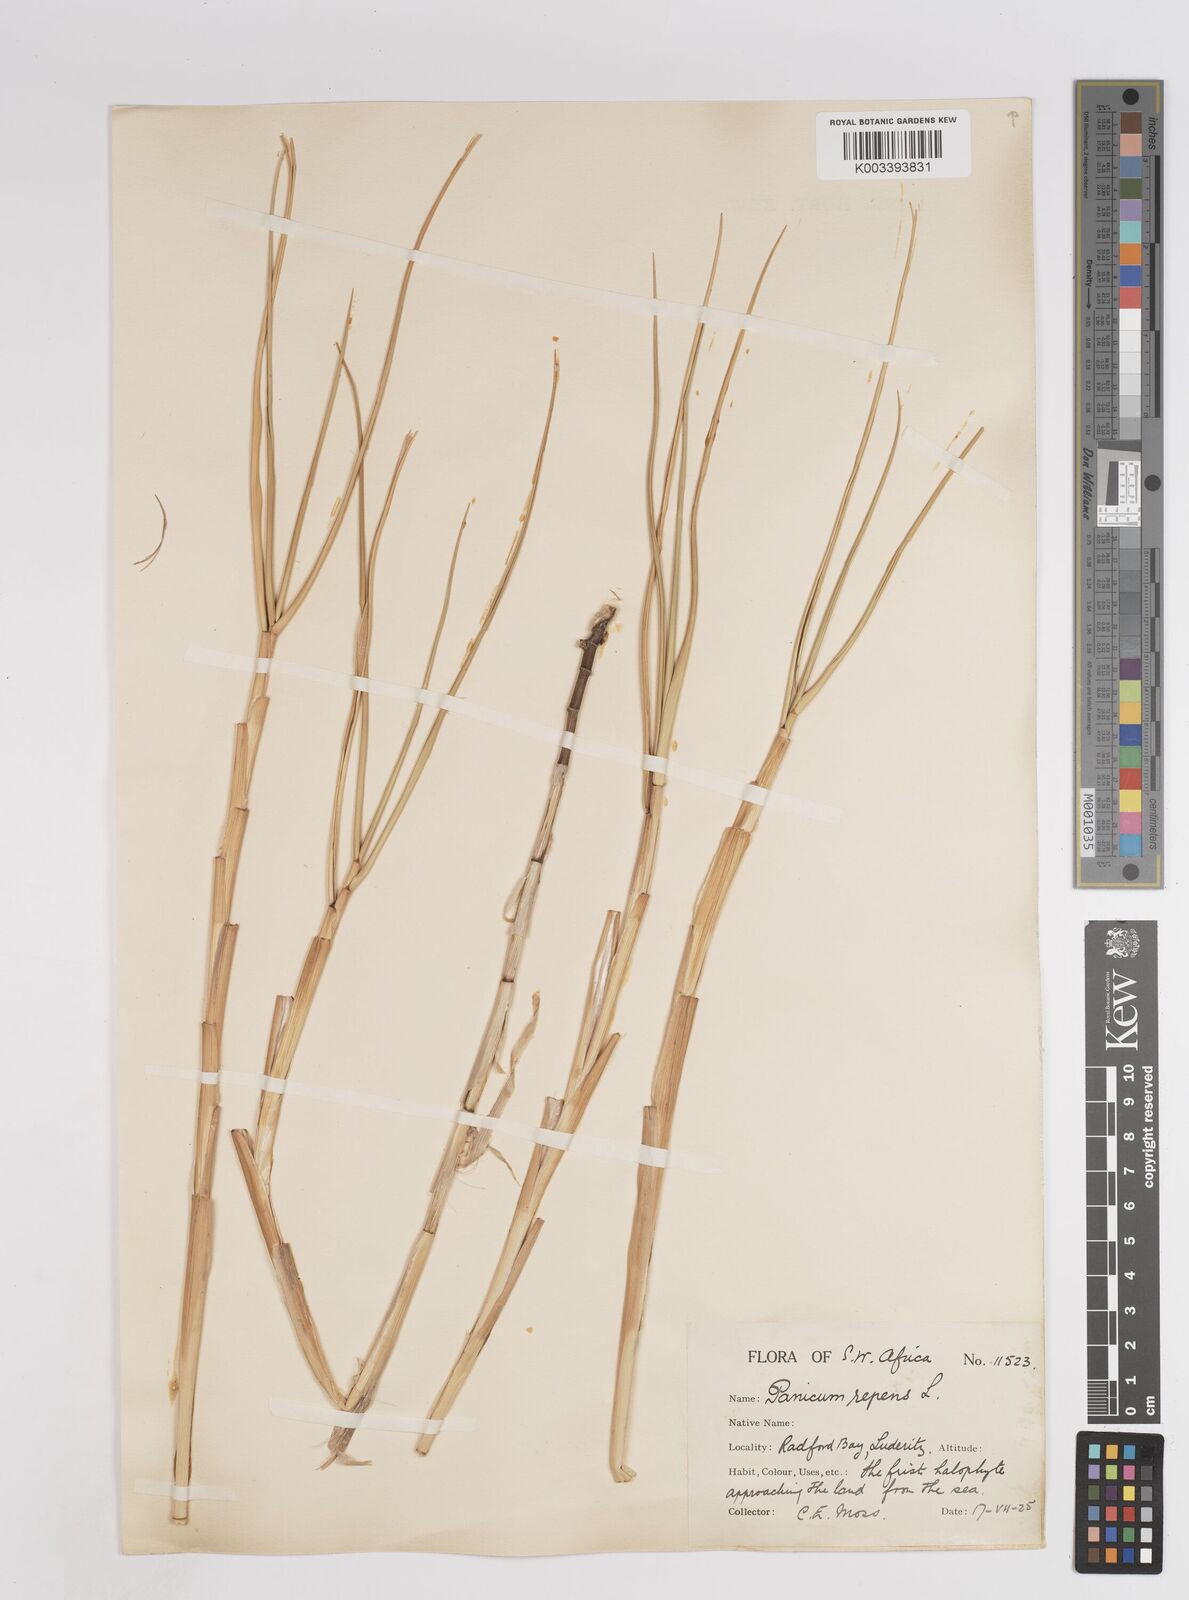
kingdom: Plantae
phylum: Tracheophyta
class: Liliopsida
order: Poales
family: Poaceae
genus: Panicum
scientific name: Panicum repens
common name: Torpedo grass
